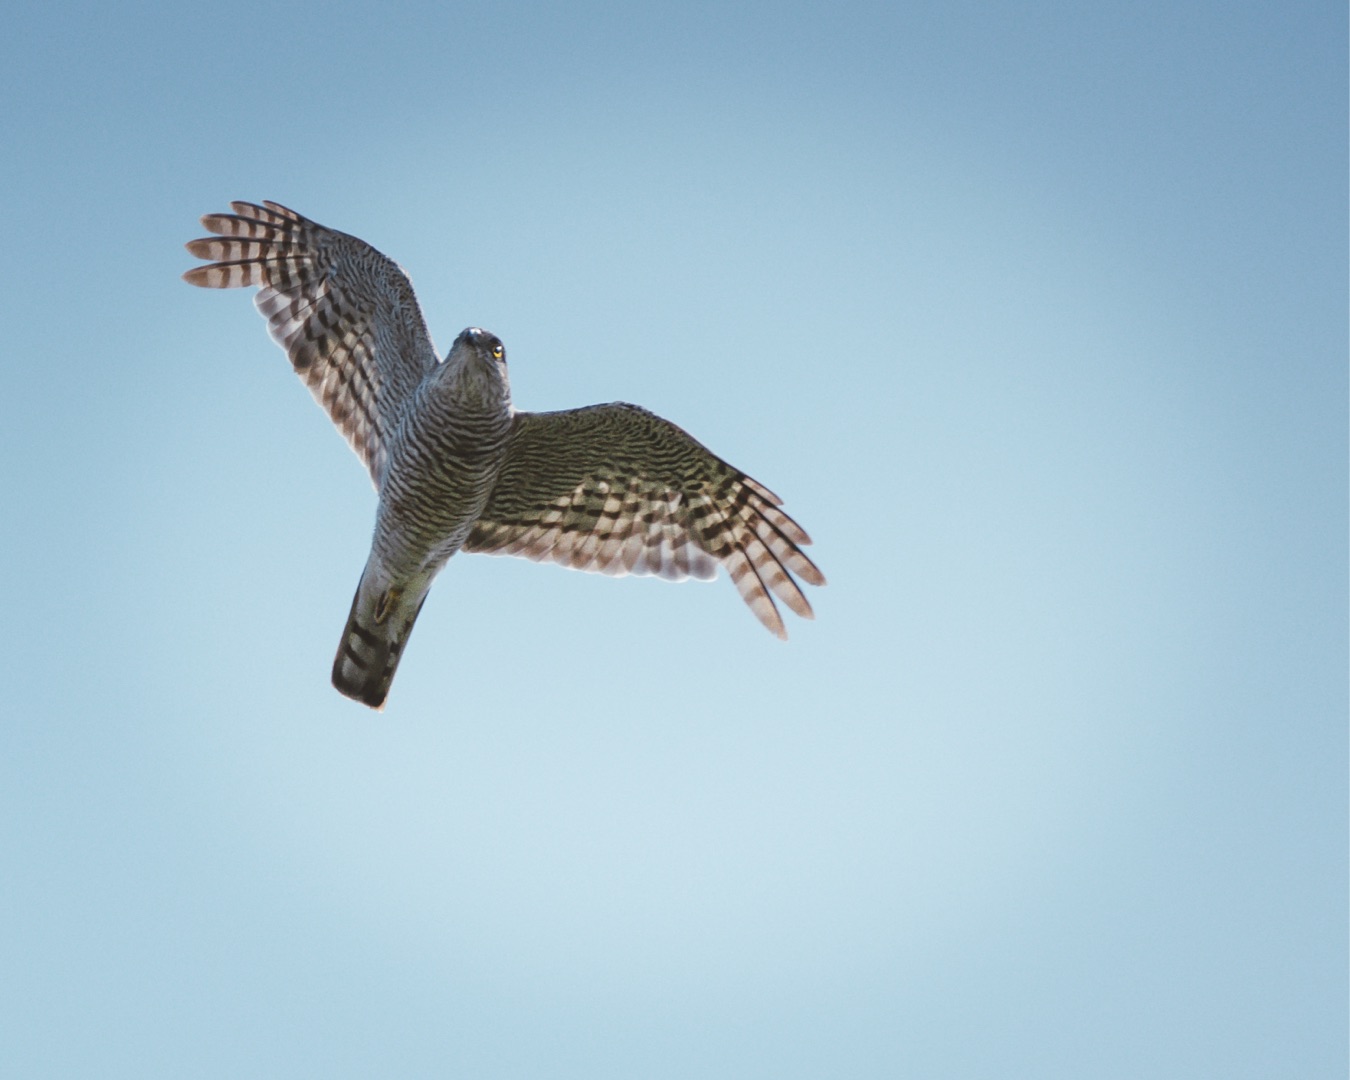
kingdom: Animalia
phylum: Chordata
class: Aves
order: Accipitriformes
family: Accipitridae
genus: Accipiter
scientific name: Accipiter nisus
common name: Spurvehøg
